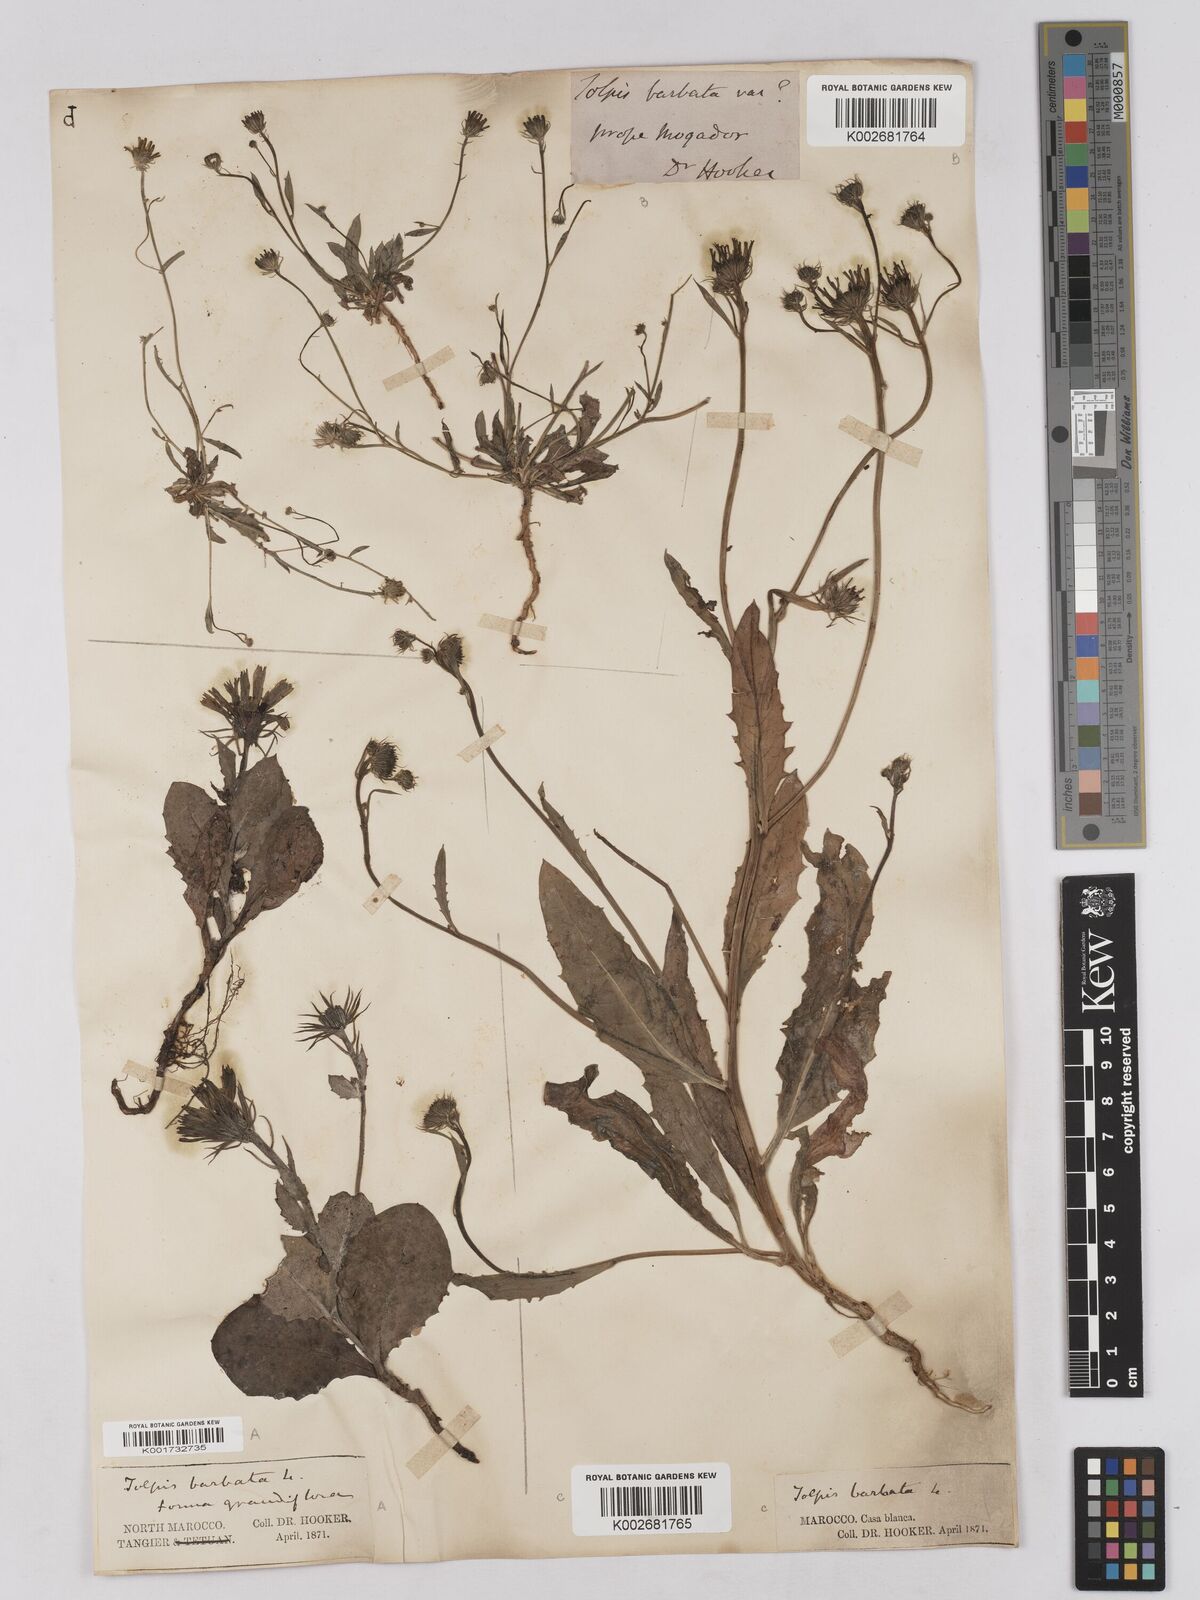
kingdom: Plantae
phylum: Tracheophyta
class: Magnoliopsida
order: Asterales
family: Asteraceae
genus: Tolpis
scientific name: Tolpis barbata
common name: Yellow hawkweed
